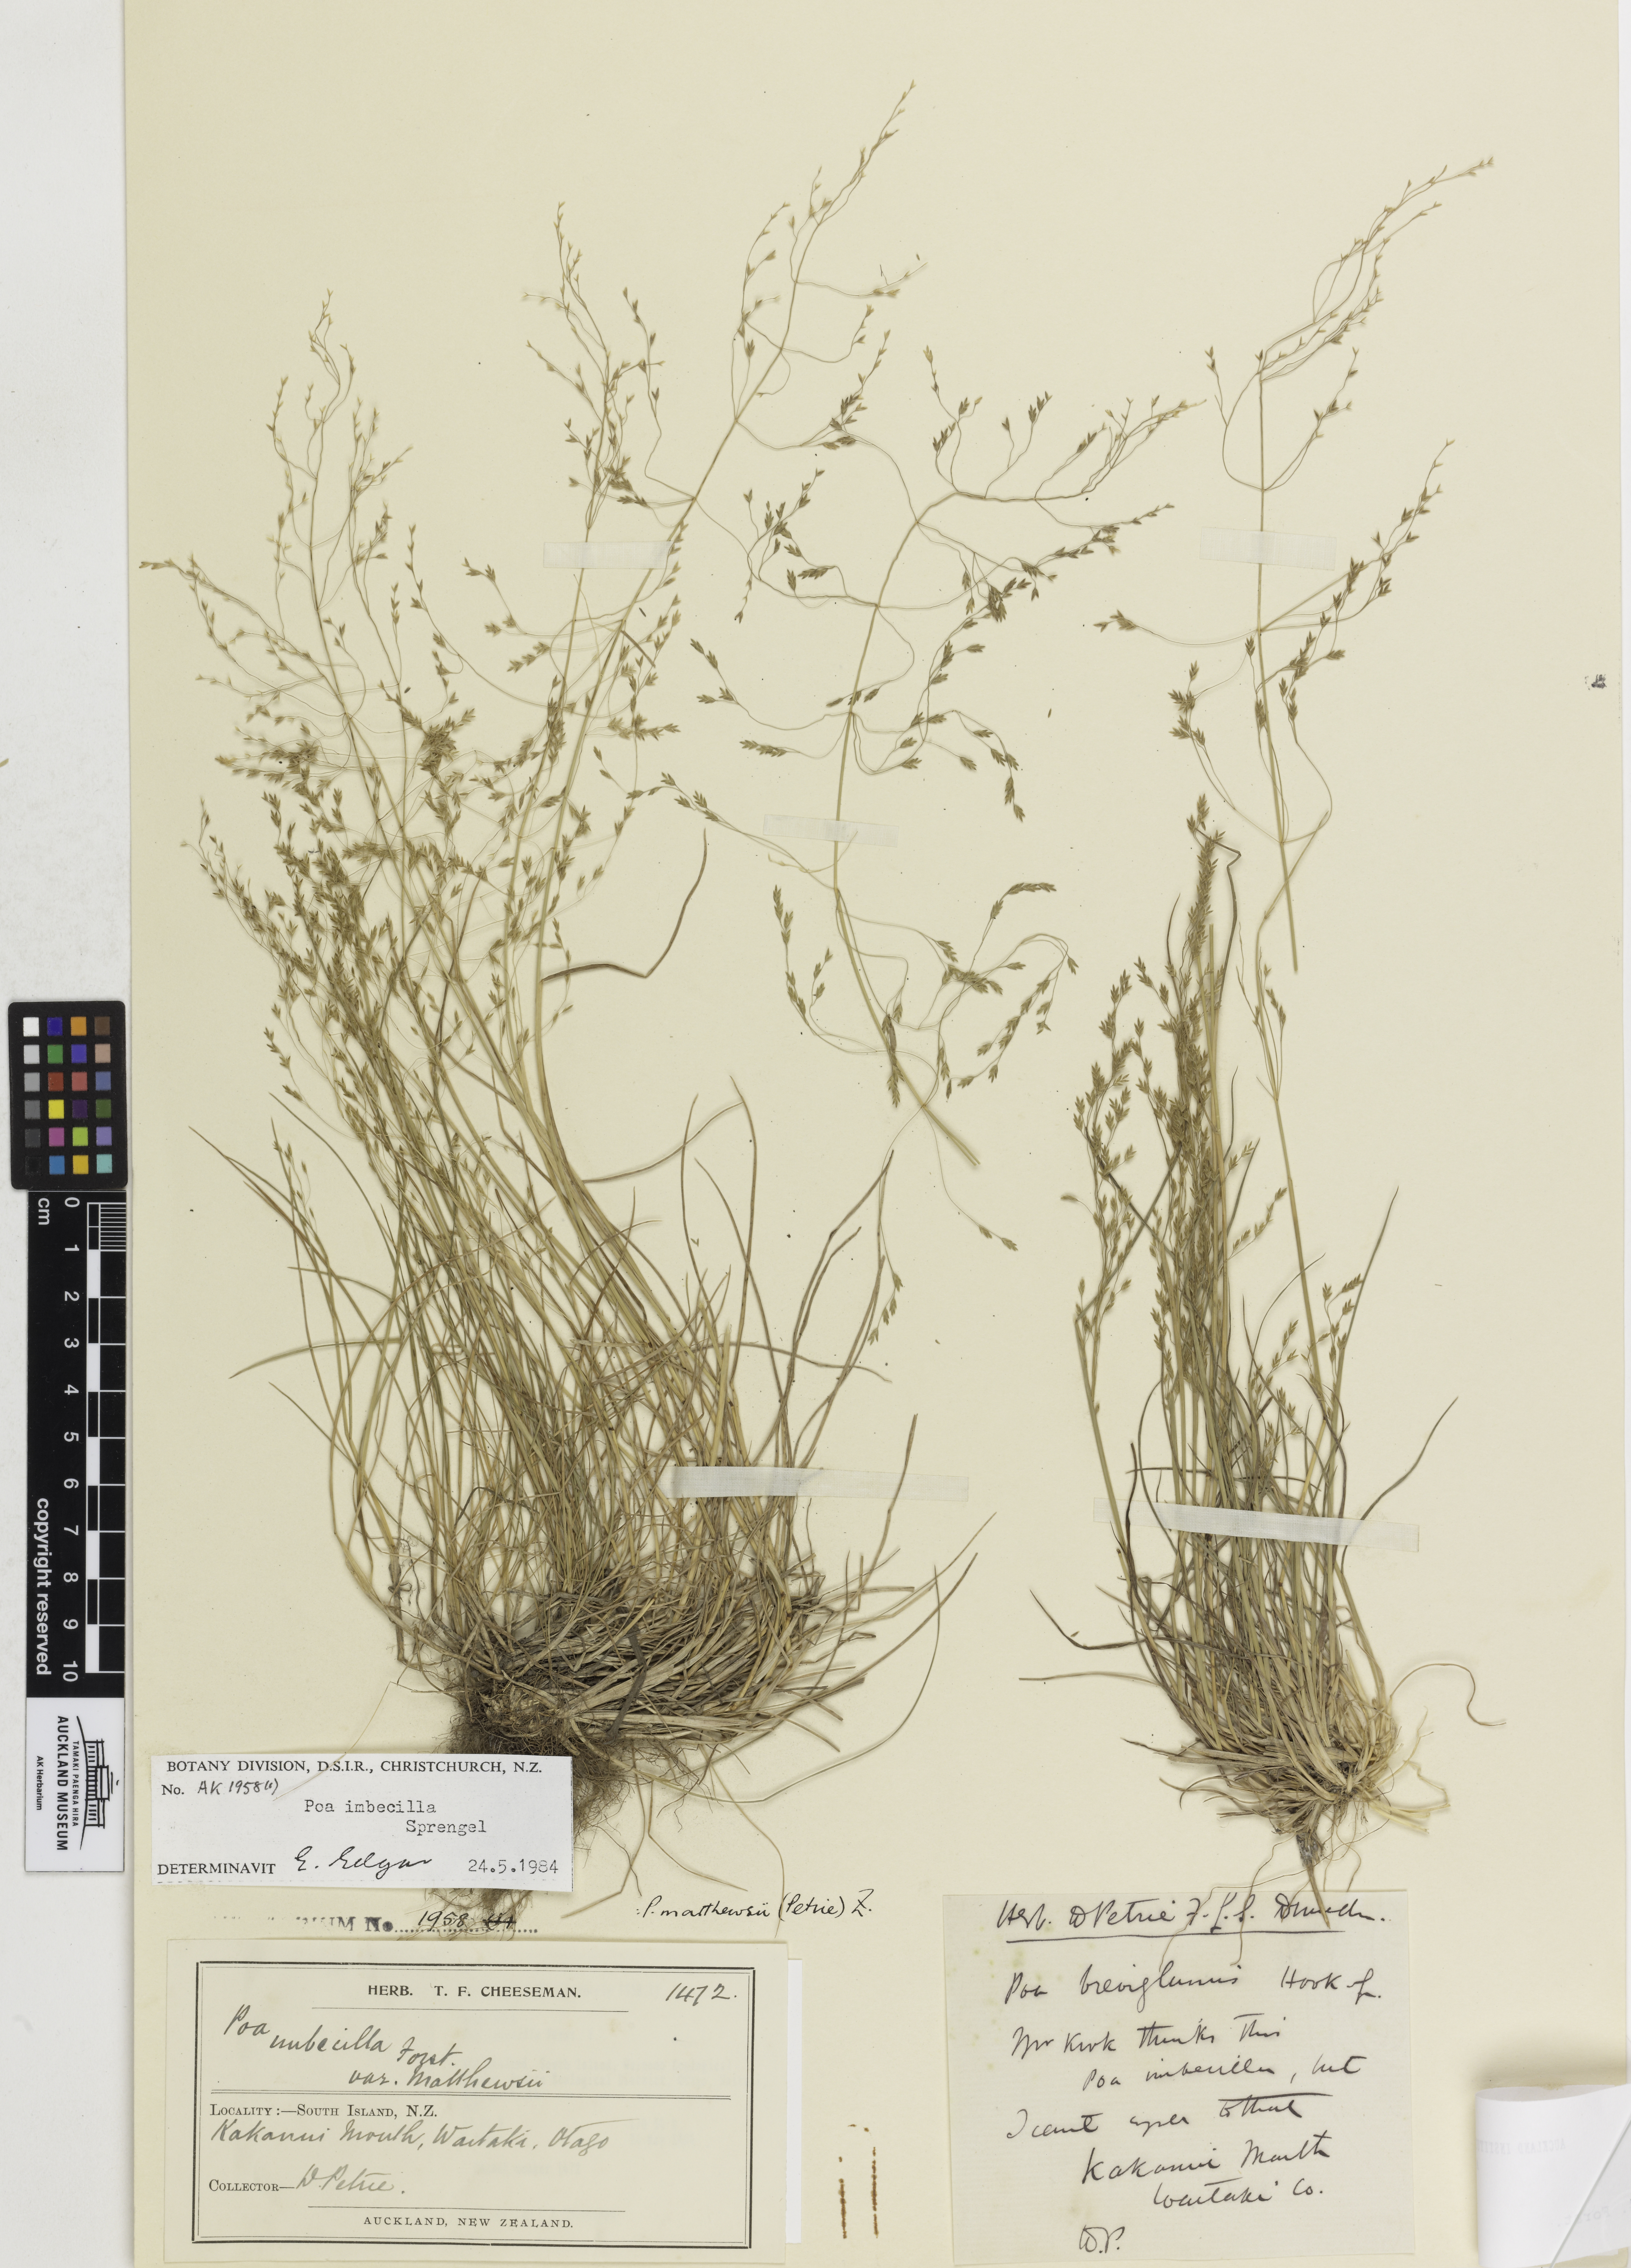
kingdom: Plantae
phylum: Tracheophyta
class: Liliopsida
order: Poales
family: Poaceae
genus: Lachnagrostis
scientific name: Lachnagrostis leptostachys
